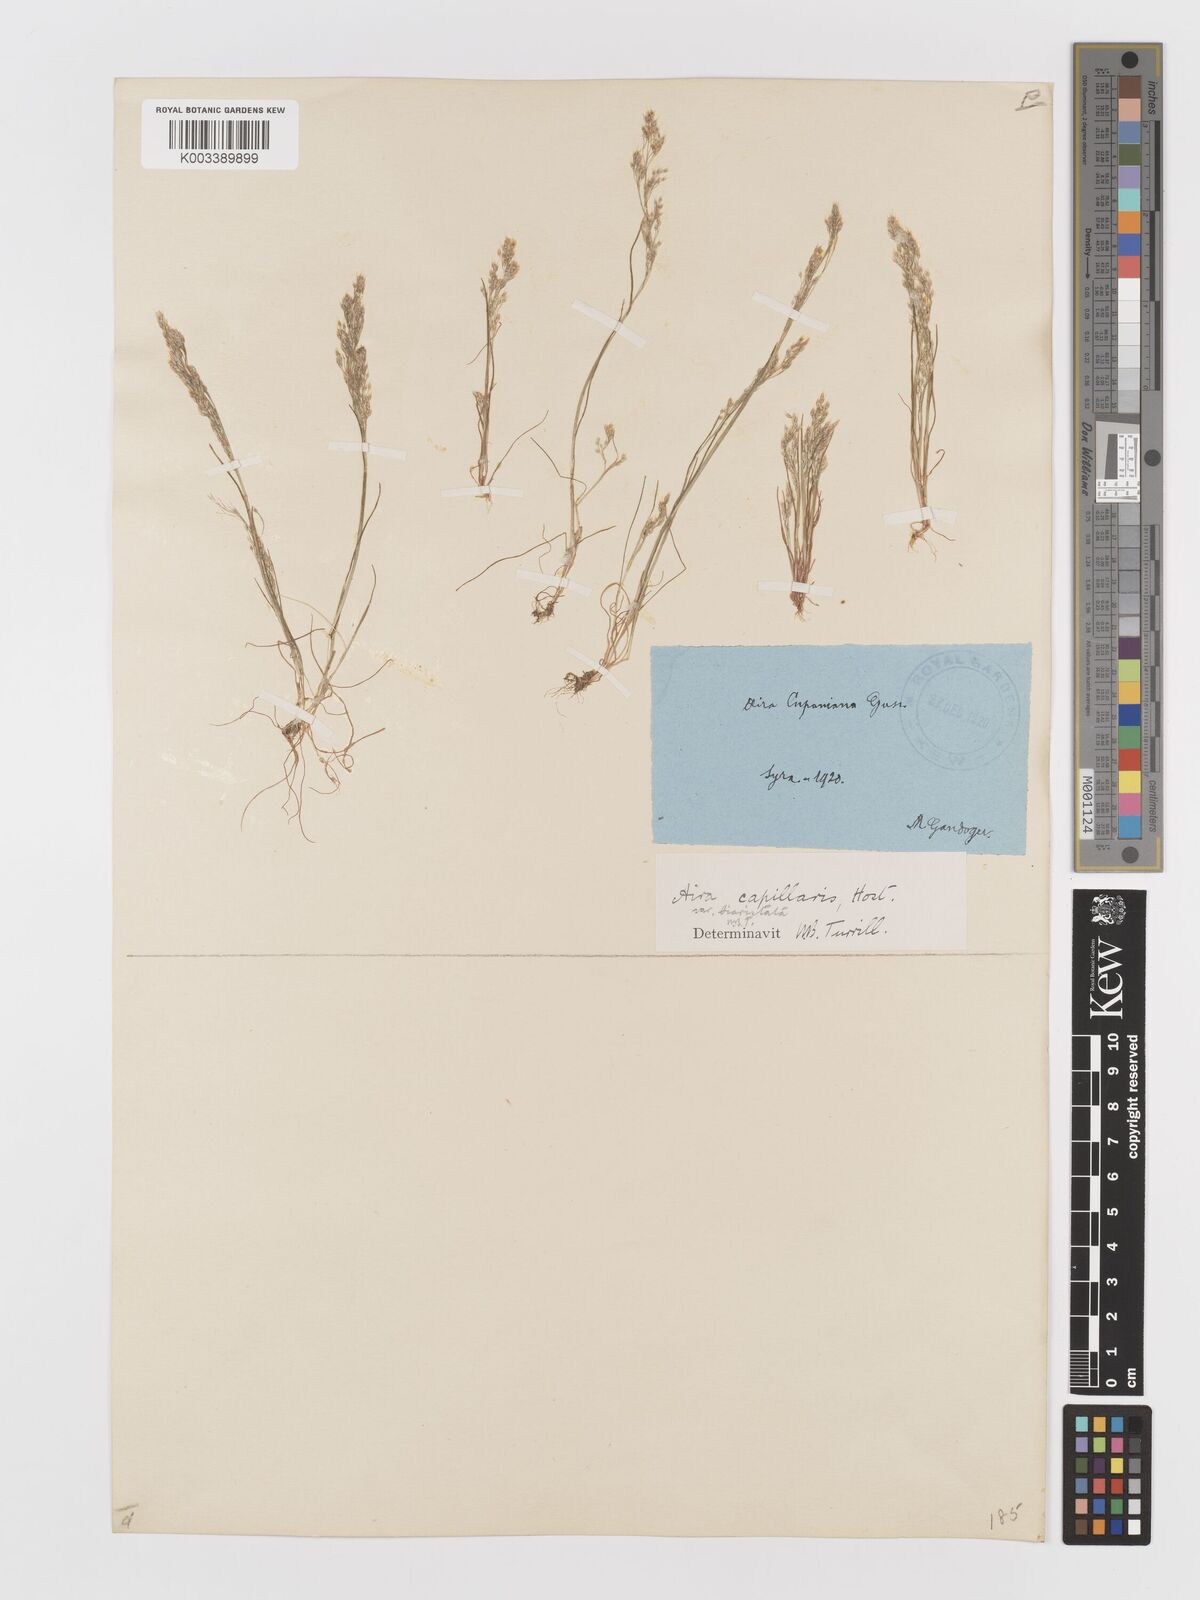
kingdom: Plantae
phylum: Tracheophyta
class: Liliopsida
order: Poales
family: Poaceae
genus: Aira
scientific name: Aira elegans
